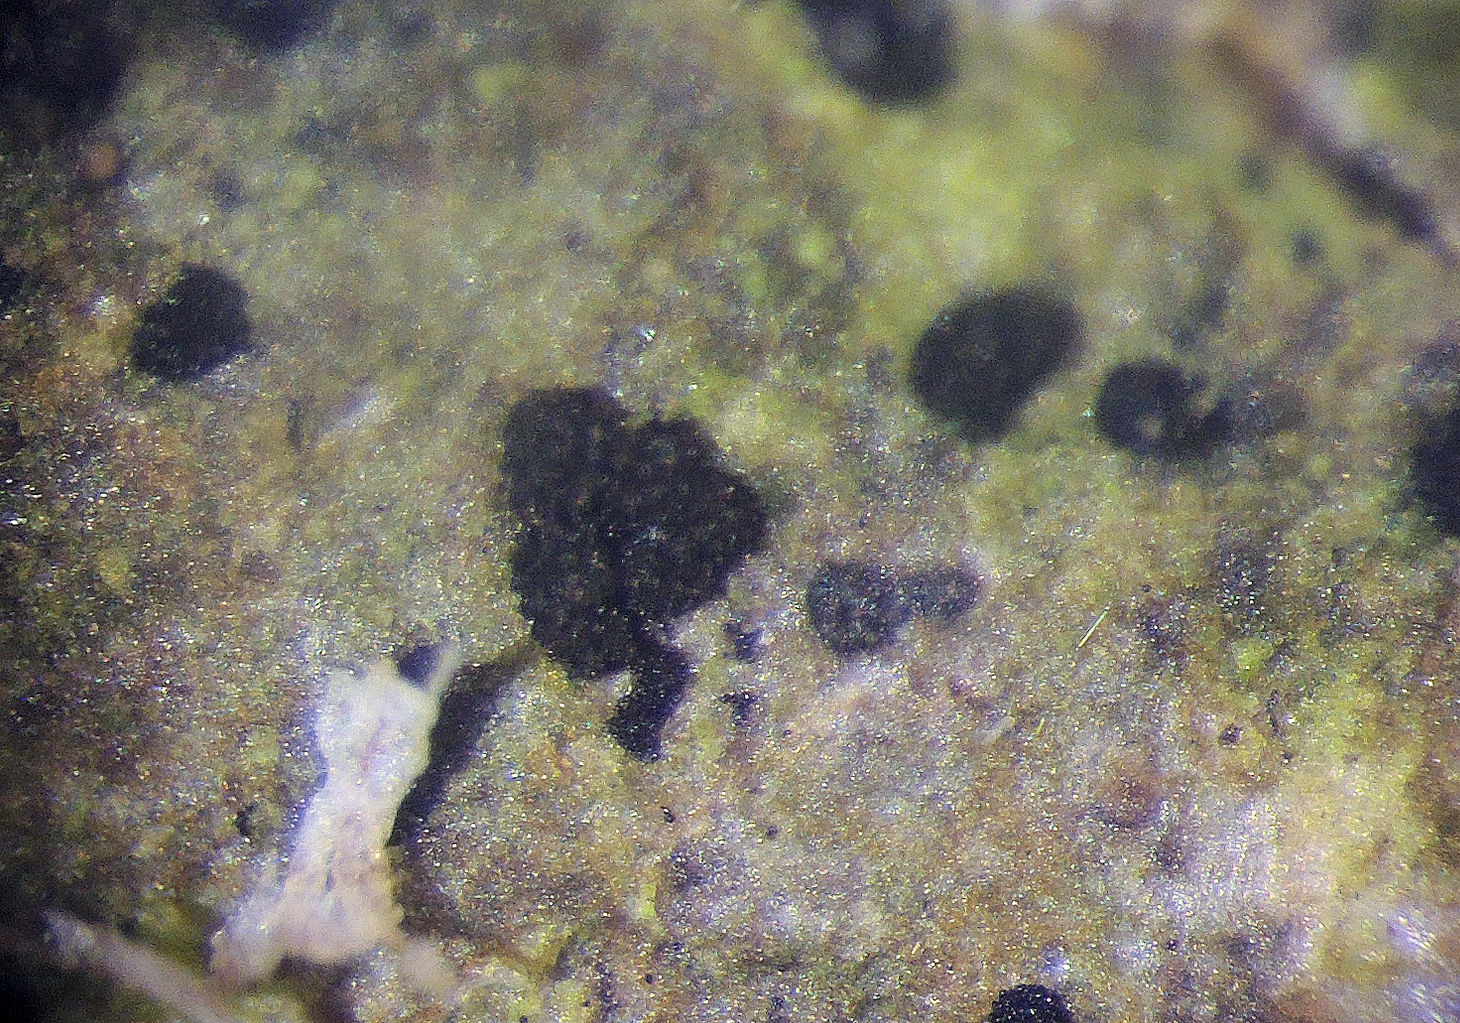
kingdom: Fungi
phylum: Ascomycota
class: Dothideomycetes
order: Dothideales
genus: Monodictys
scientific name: Monodictys paradoxa
